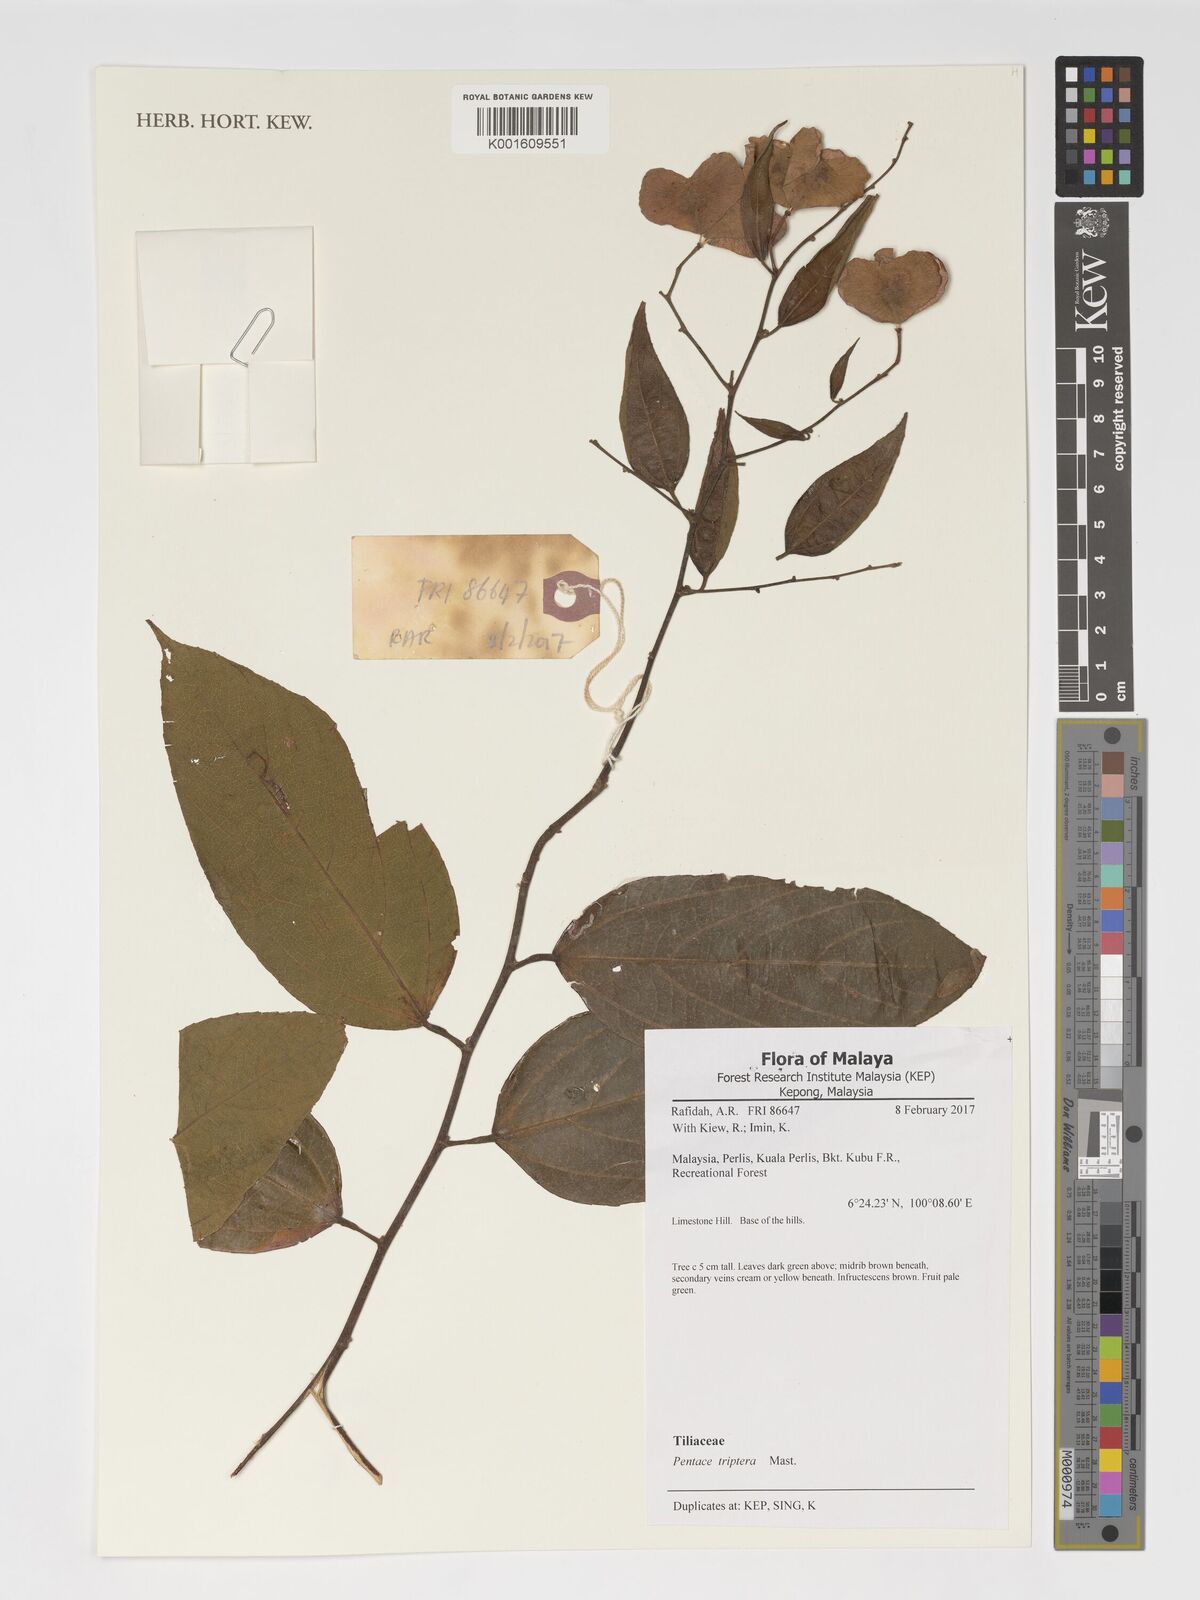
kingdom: Plantae
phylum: Tracheophyta
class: Magnoliopsida
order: Malvales
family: Malvaceae
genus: Pentace
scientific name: Pentace triptera
